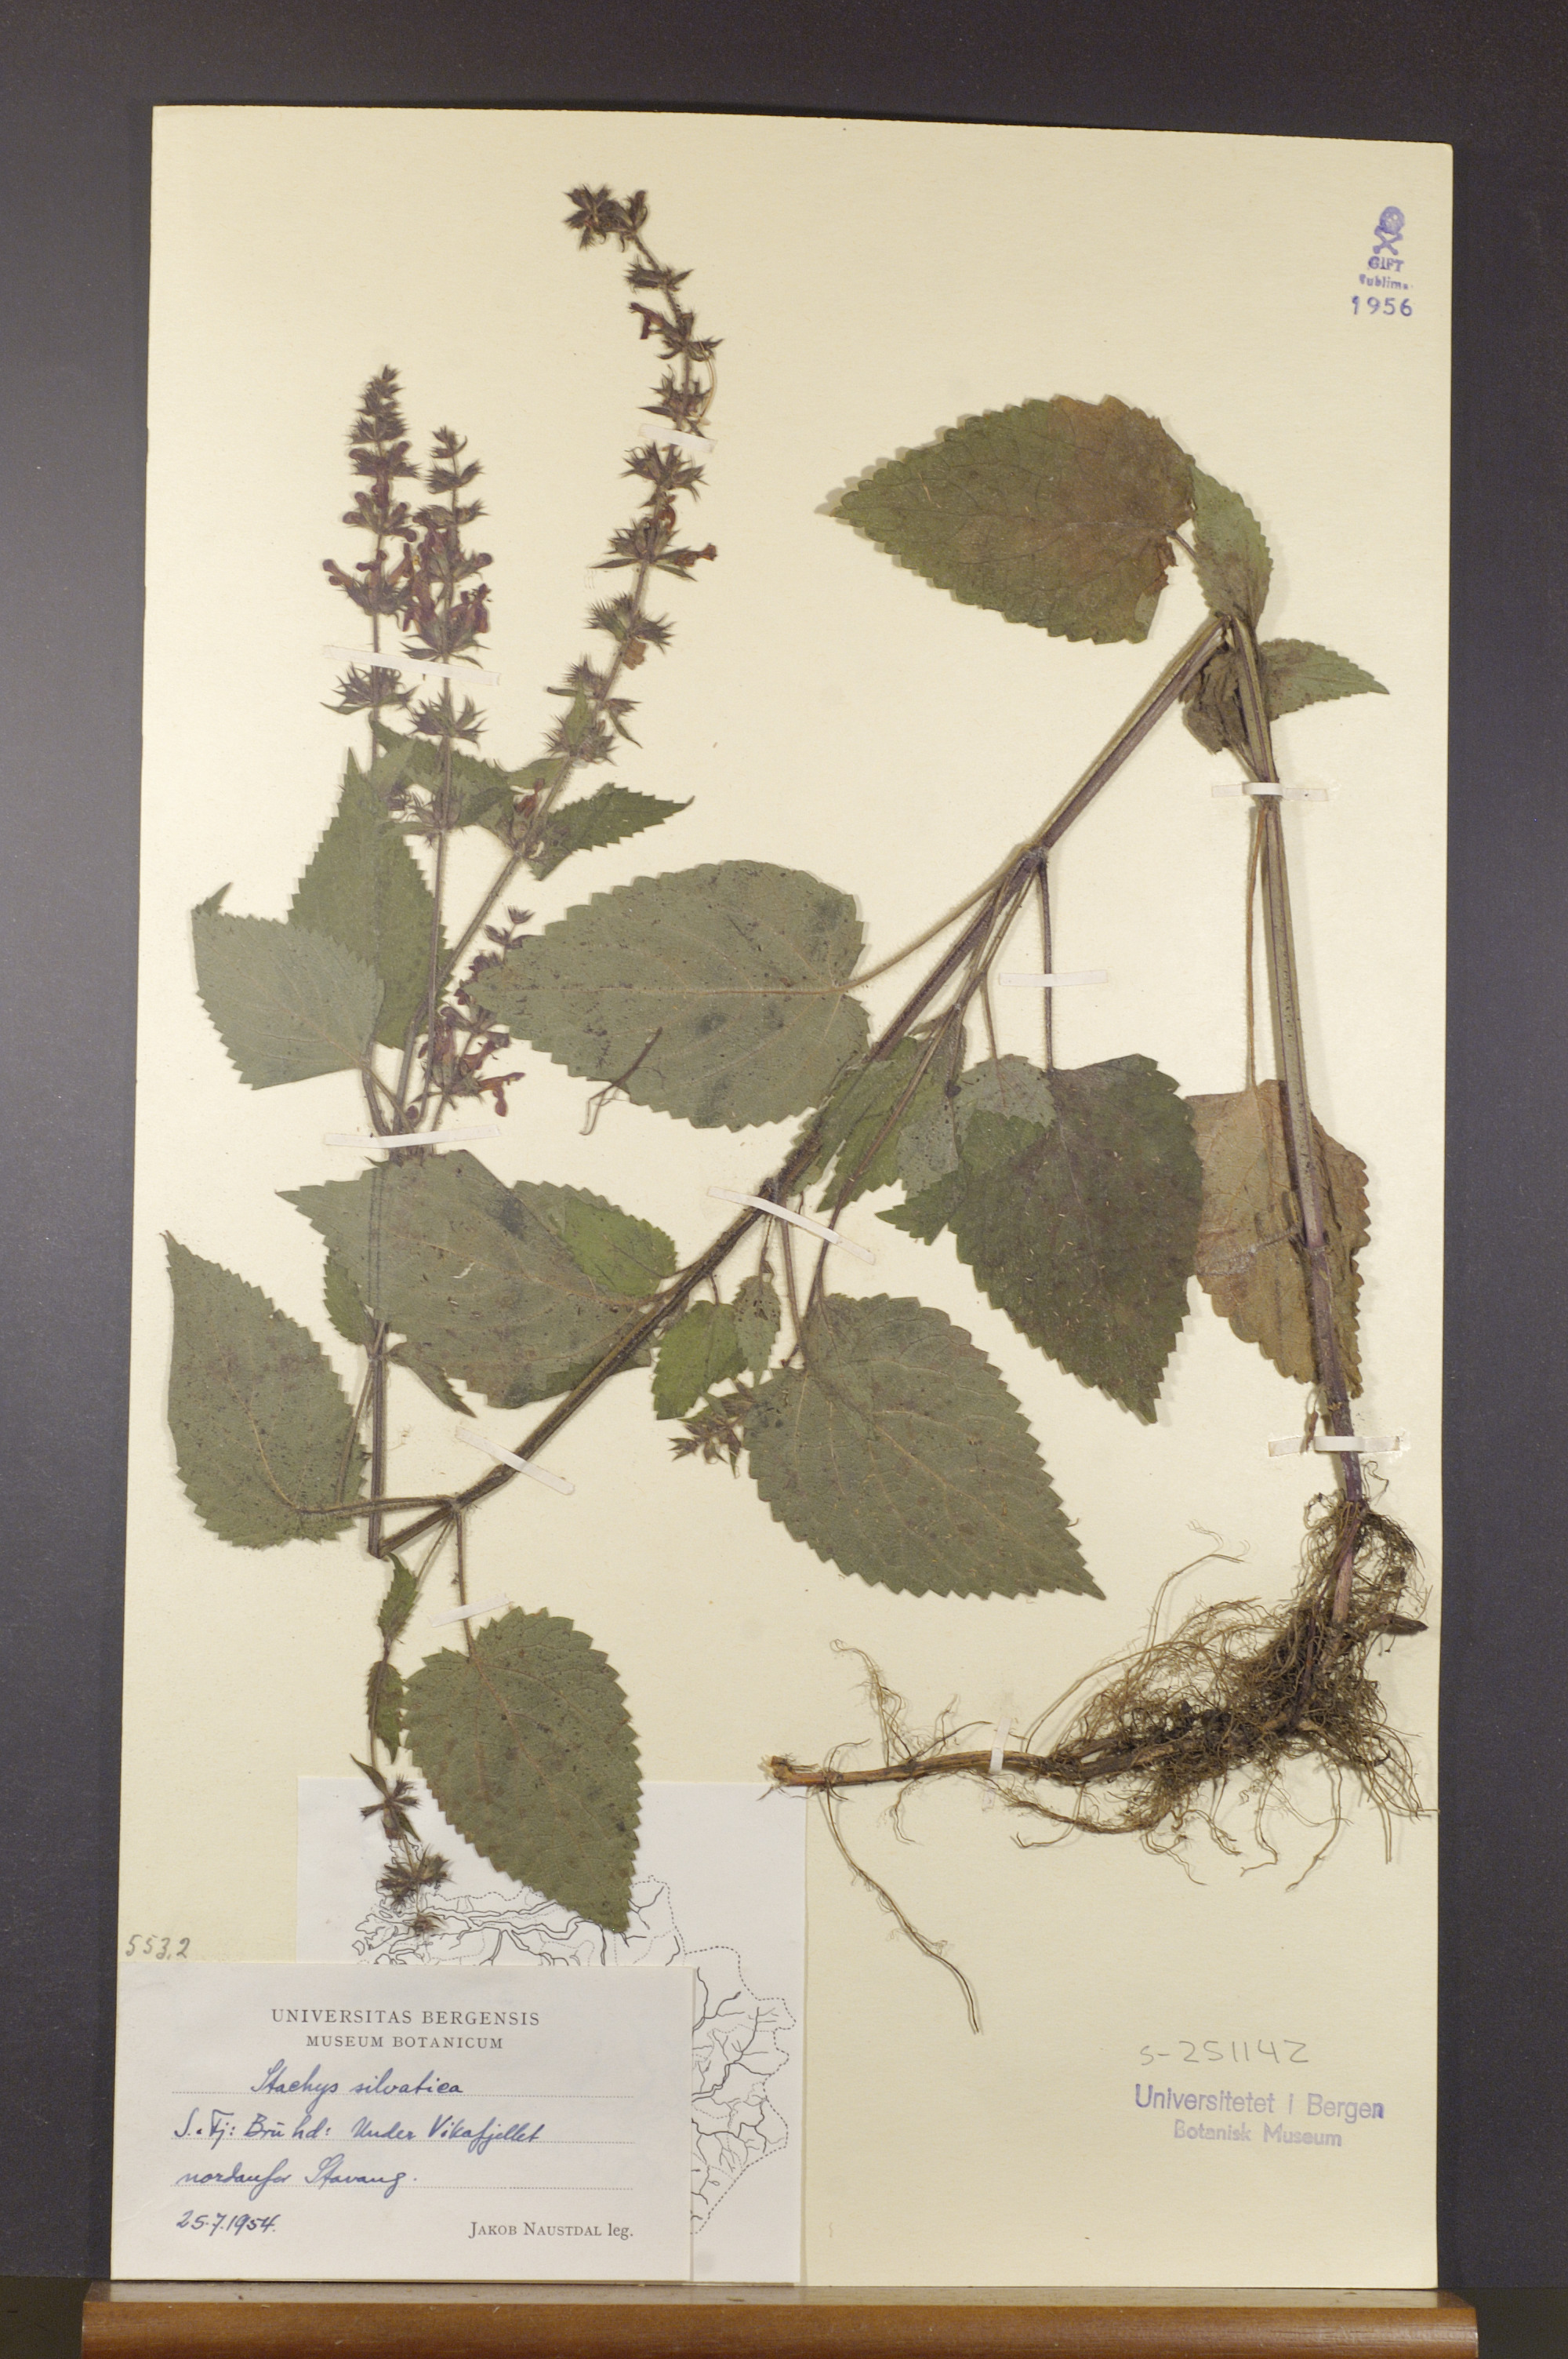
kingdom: Plantae
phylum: Tracheophyta
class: Magnoliopsida
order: Lamiales
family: Lamiaceae
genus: Stachys
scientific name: Stachys sylvatica
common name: Hedge woundwort
